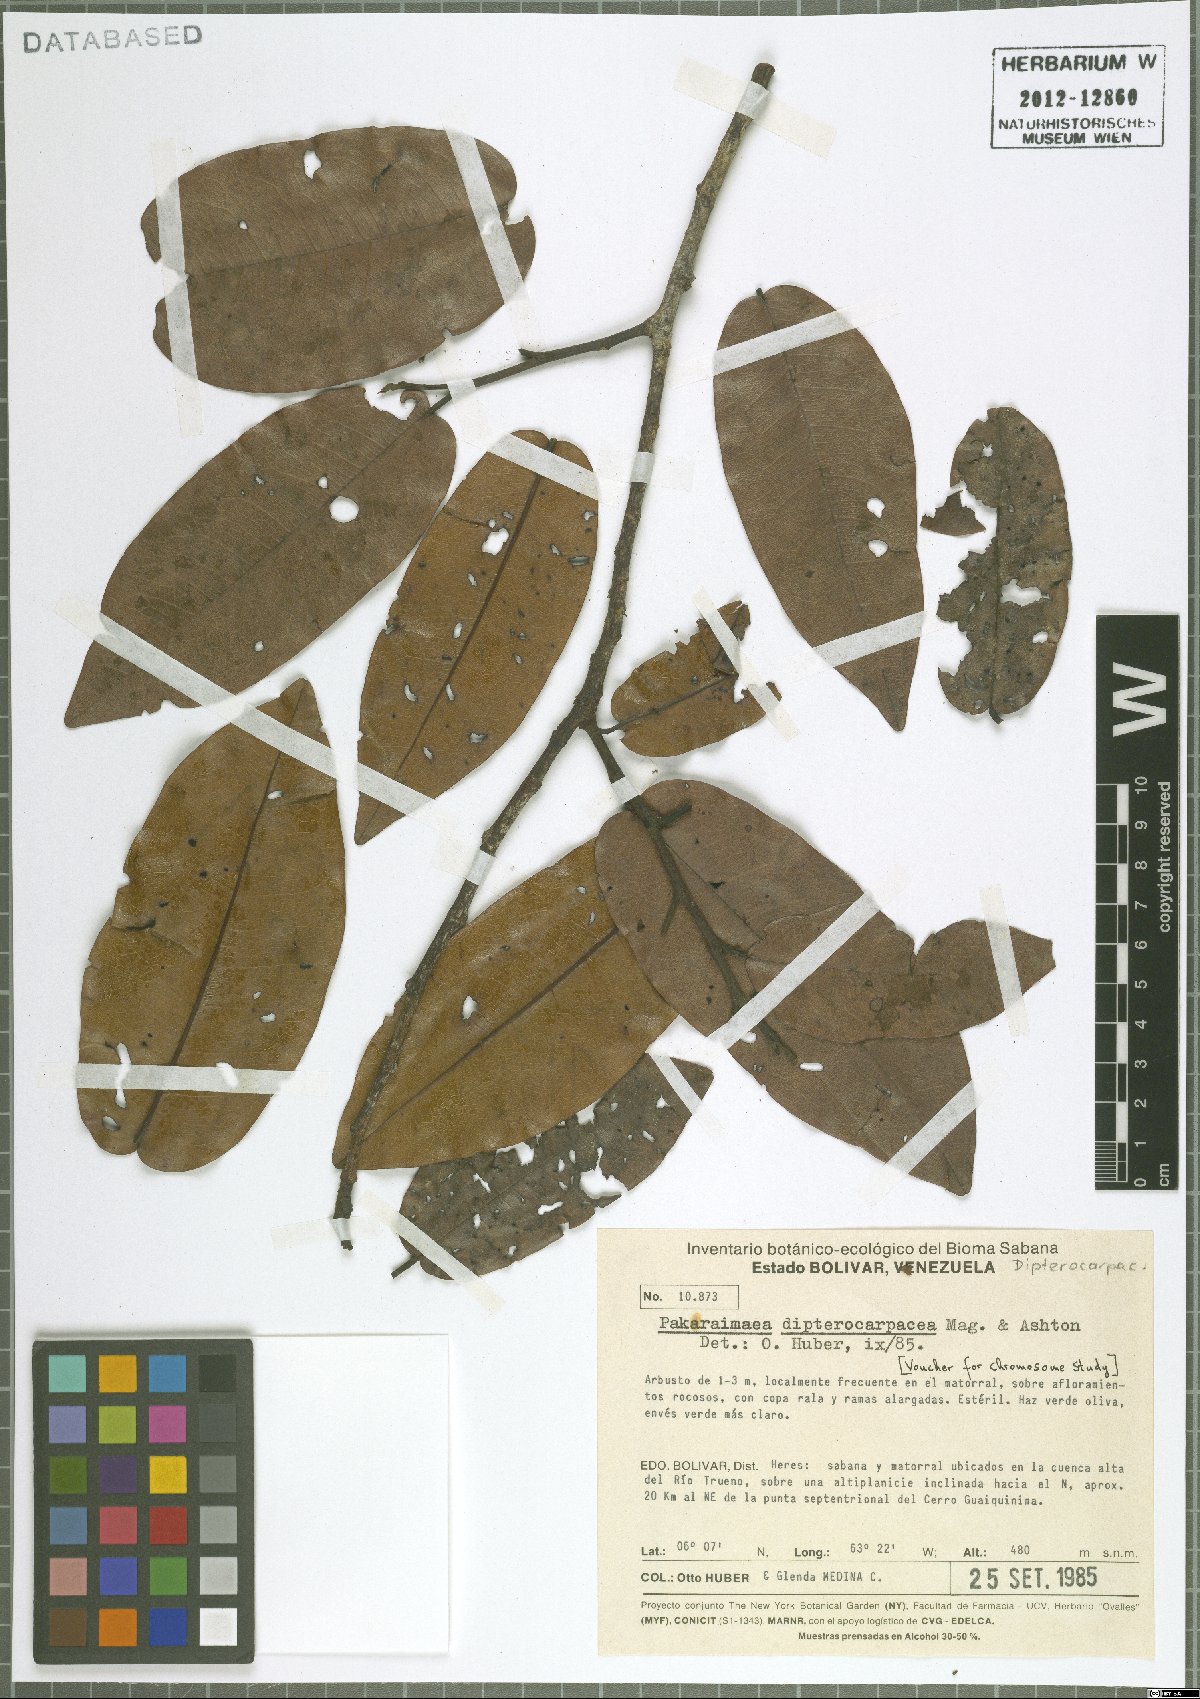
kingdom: Plantae
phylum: Tracheophyta
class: Magnoliopsida
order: Malvales
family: Dipterocarpaceae
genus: Pakaraimaea
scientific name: Pakaraimaea dipterocarpacea
